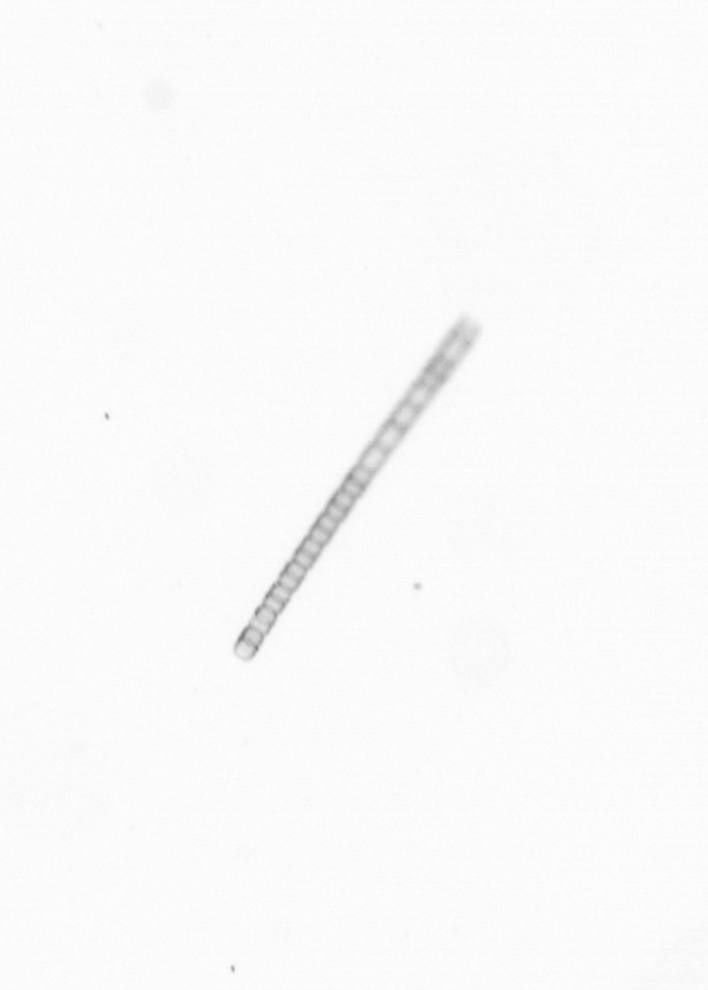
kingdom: Chromista
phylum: Ochrophyta
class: Bacillariophyceae
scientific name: Bacillariophyceae
